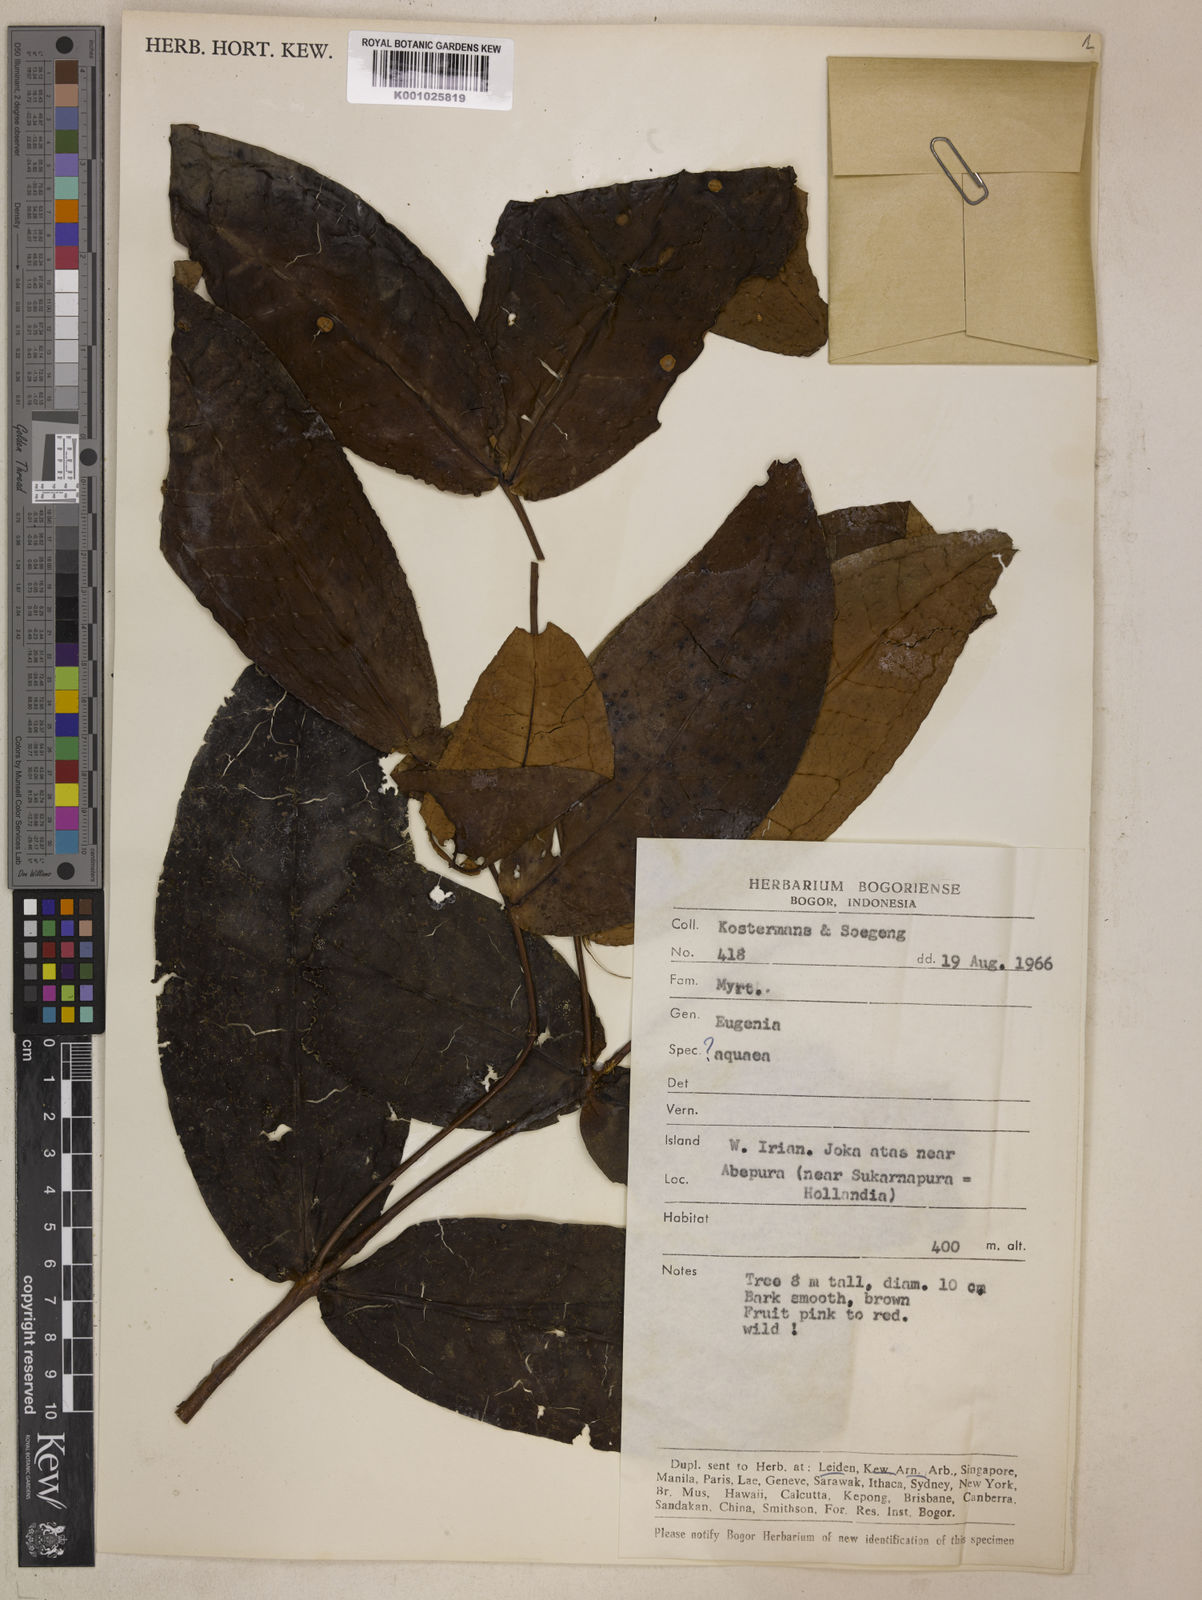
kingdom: Plantae
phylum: Tracheophyta
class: Magnoliopsida
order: Myrtales
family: Myrtaceae
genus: Syzygium
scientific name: Syzygium callianthum
